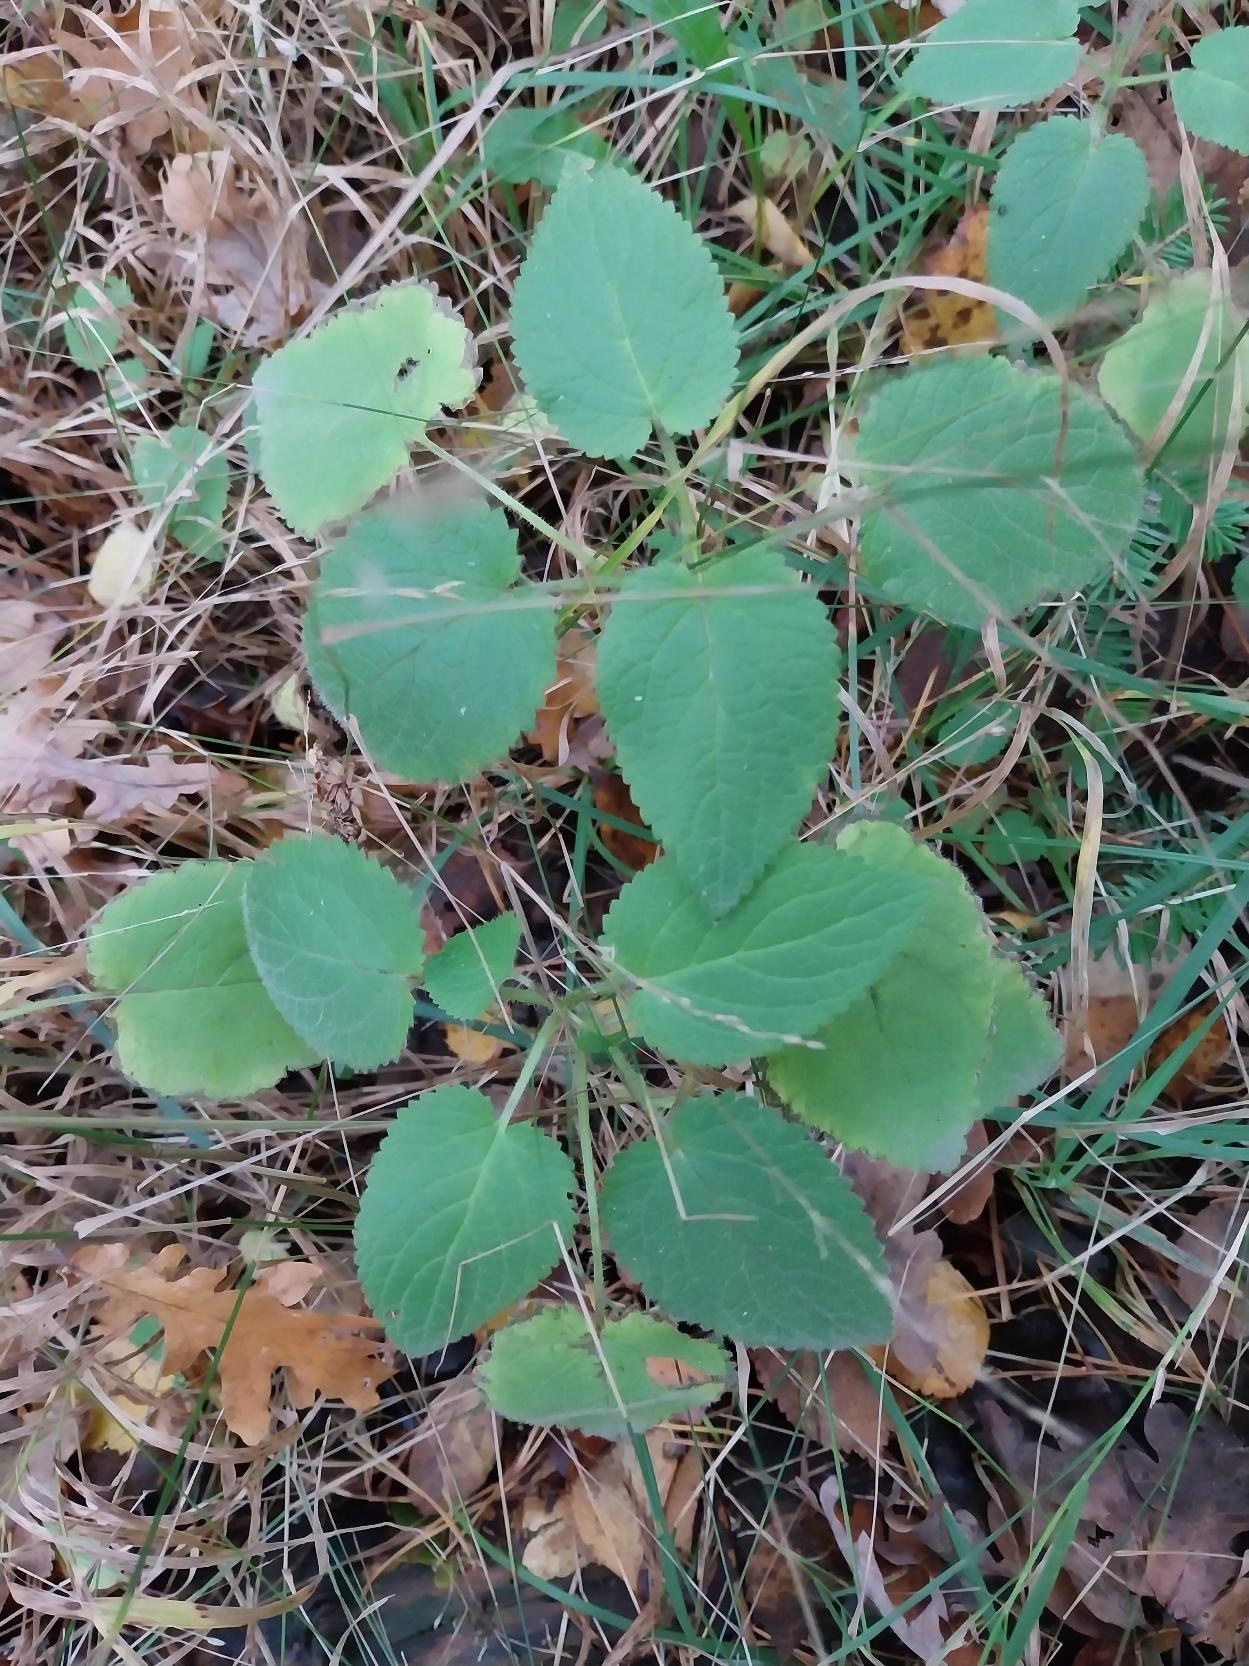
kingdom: Plantae
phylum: Tracheophyta
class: Magnoliopsida
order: Lamiales
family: Lamiaceae
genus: Stachys
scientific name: Stachys sylvatica
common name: Skov-galtetand
